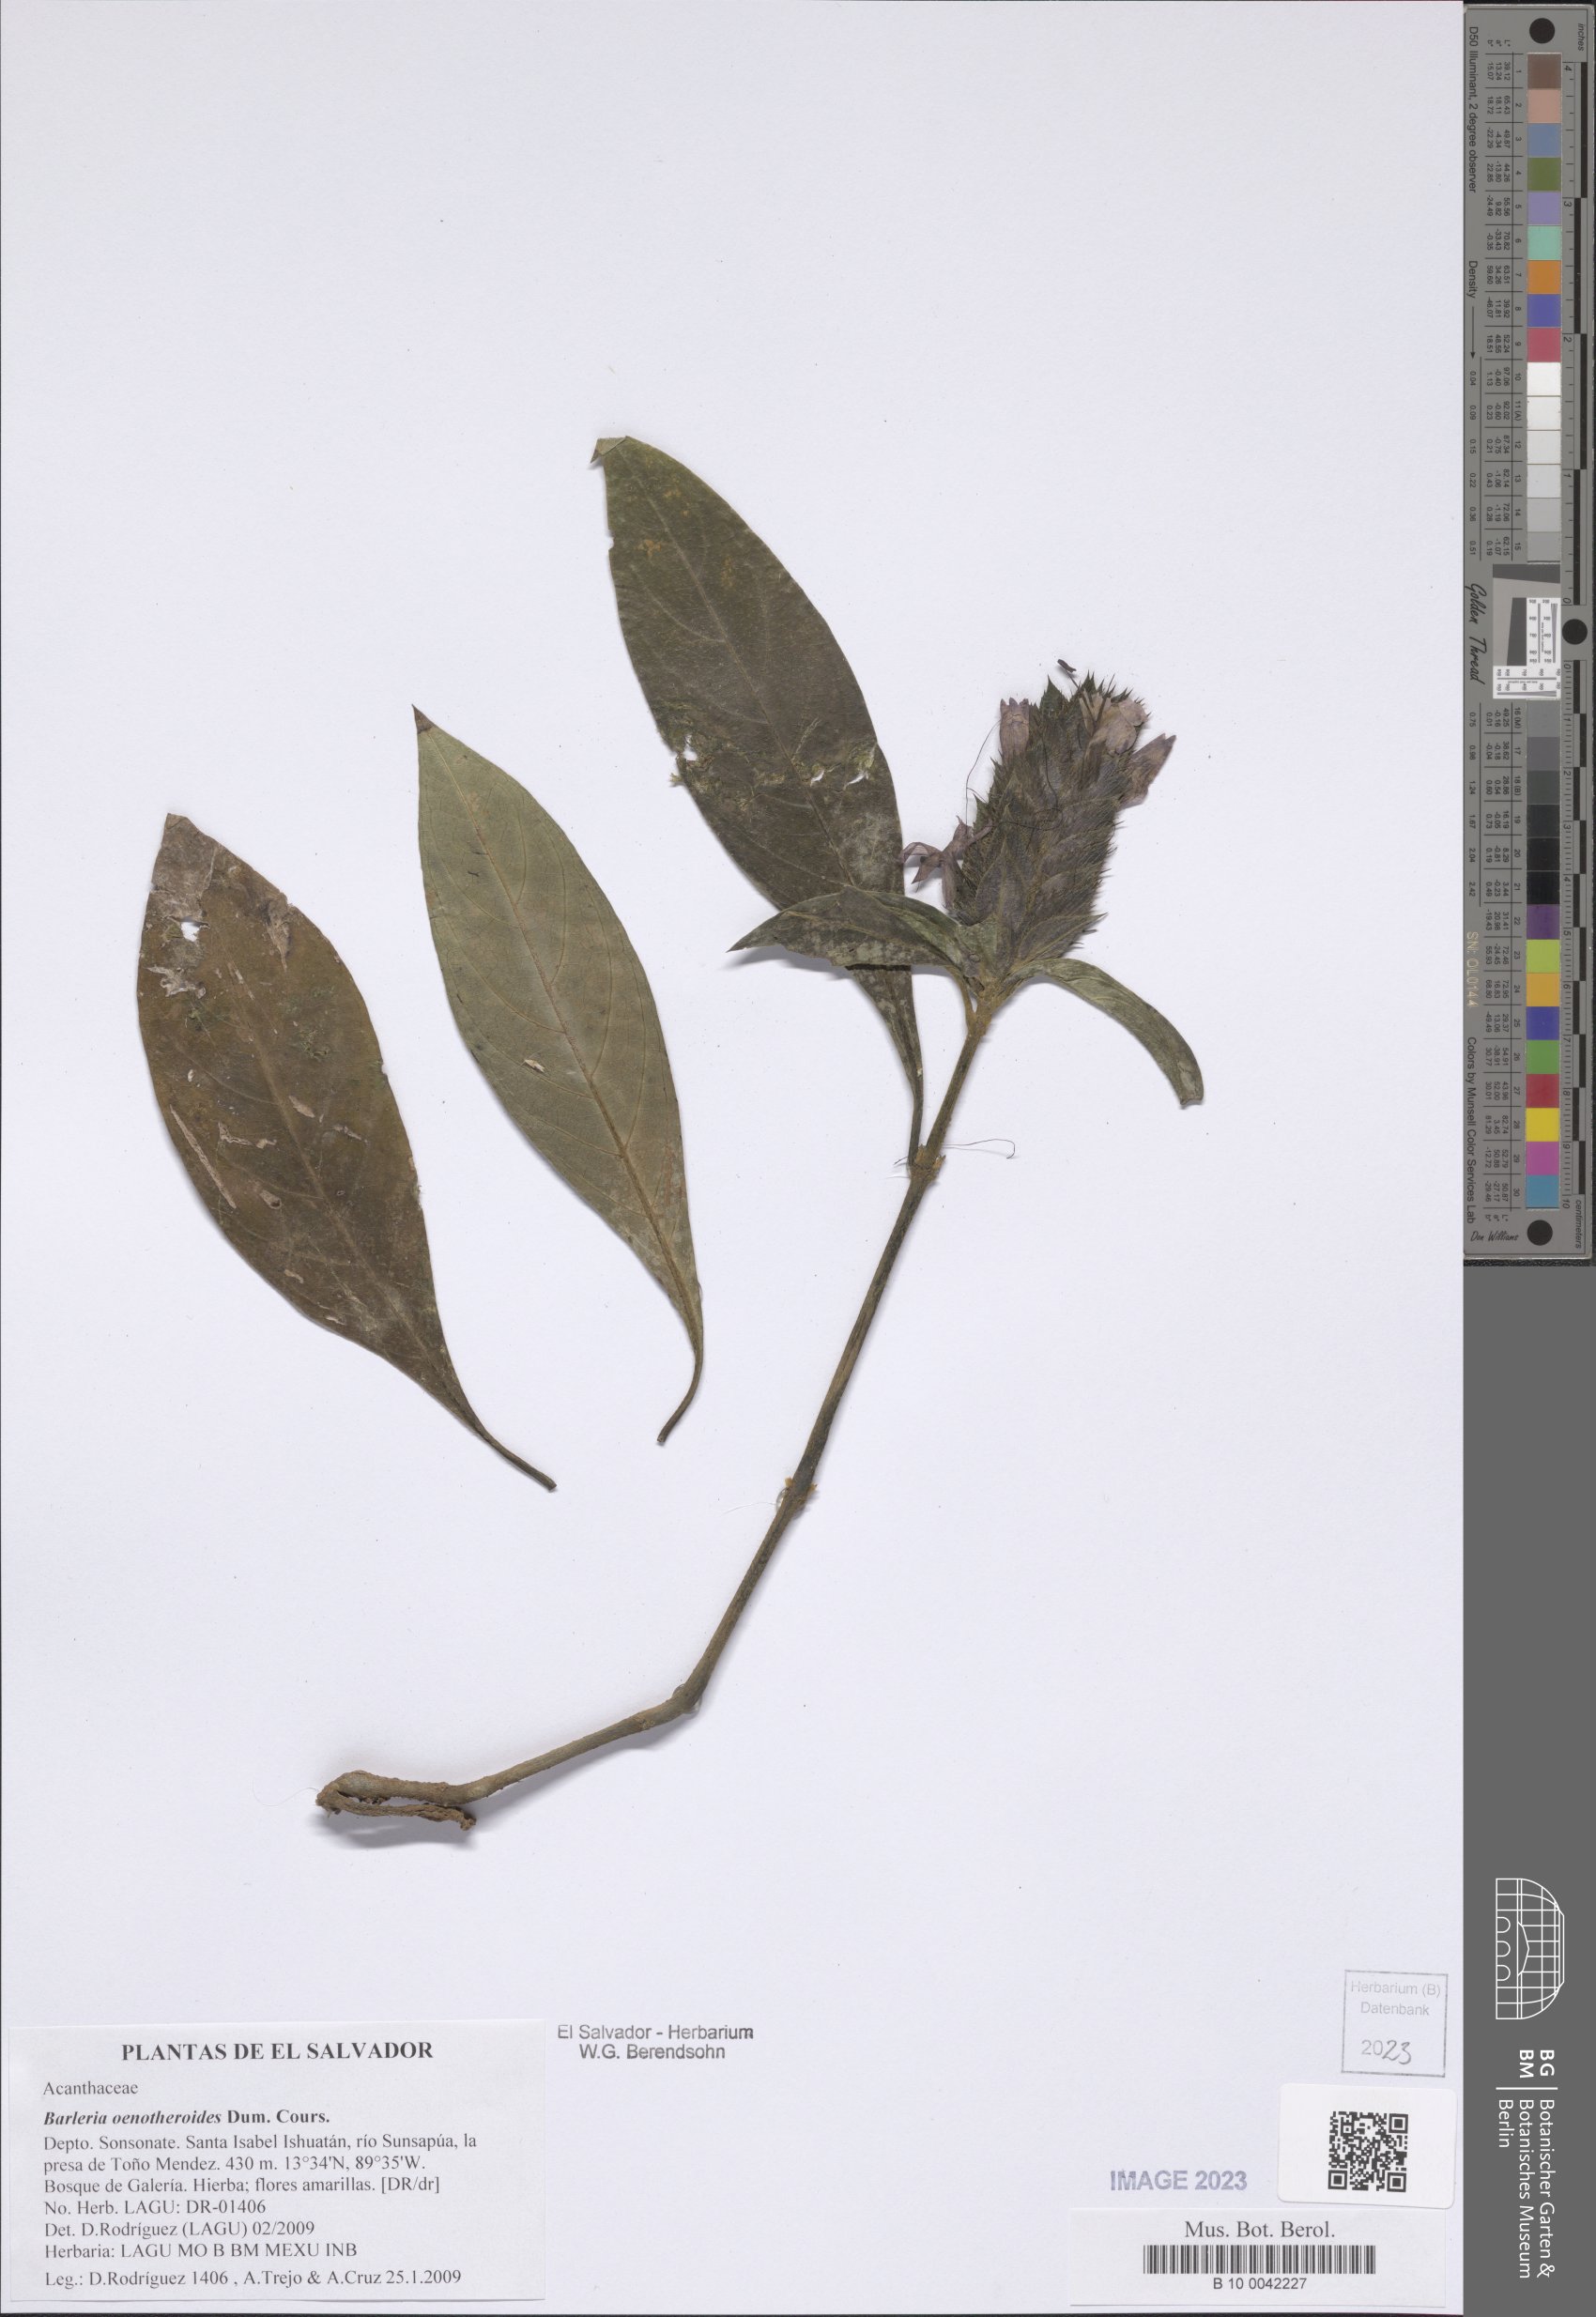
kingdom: Plantae
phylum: Tracheophyta
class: Magnoliopsida
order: Lamiales
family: Acanthaceae
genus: Barleria
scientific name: Barleria oenotheroides
